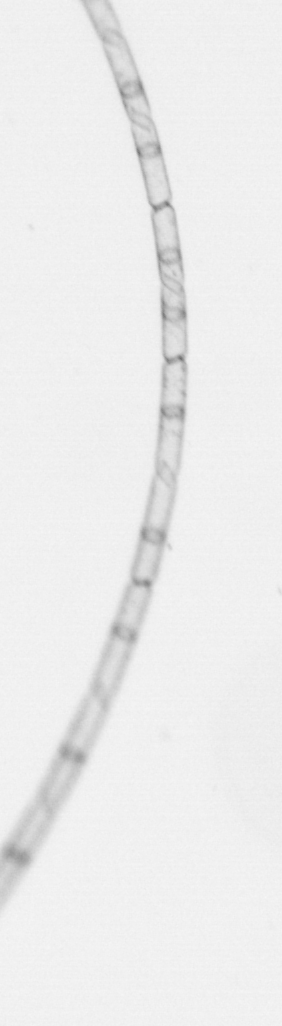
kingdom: Chromista
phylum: Ochrophyta
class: Bacillariophyceae
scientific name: Bacillariophyceae
